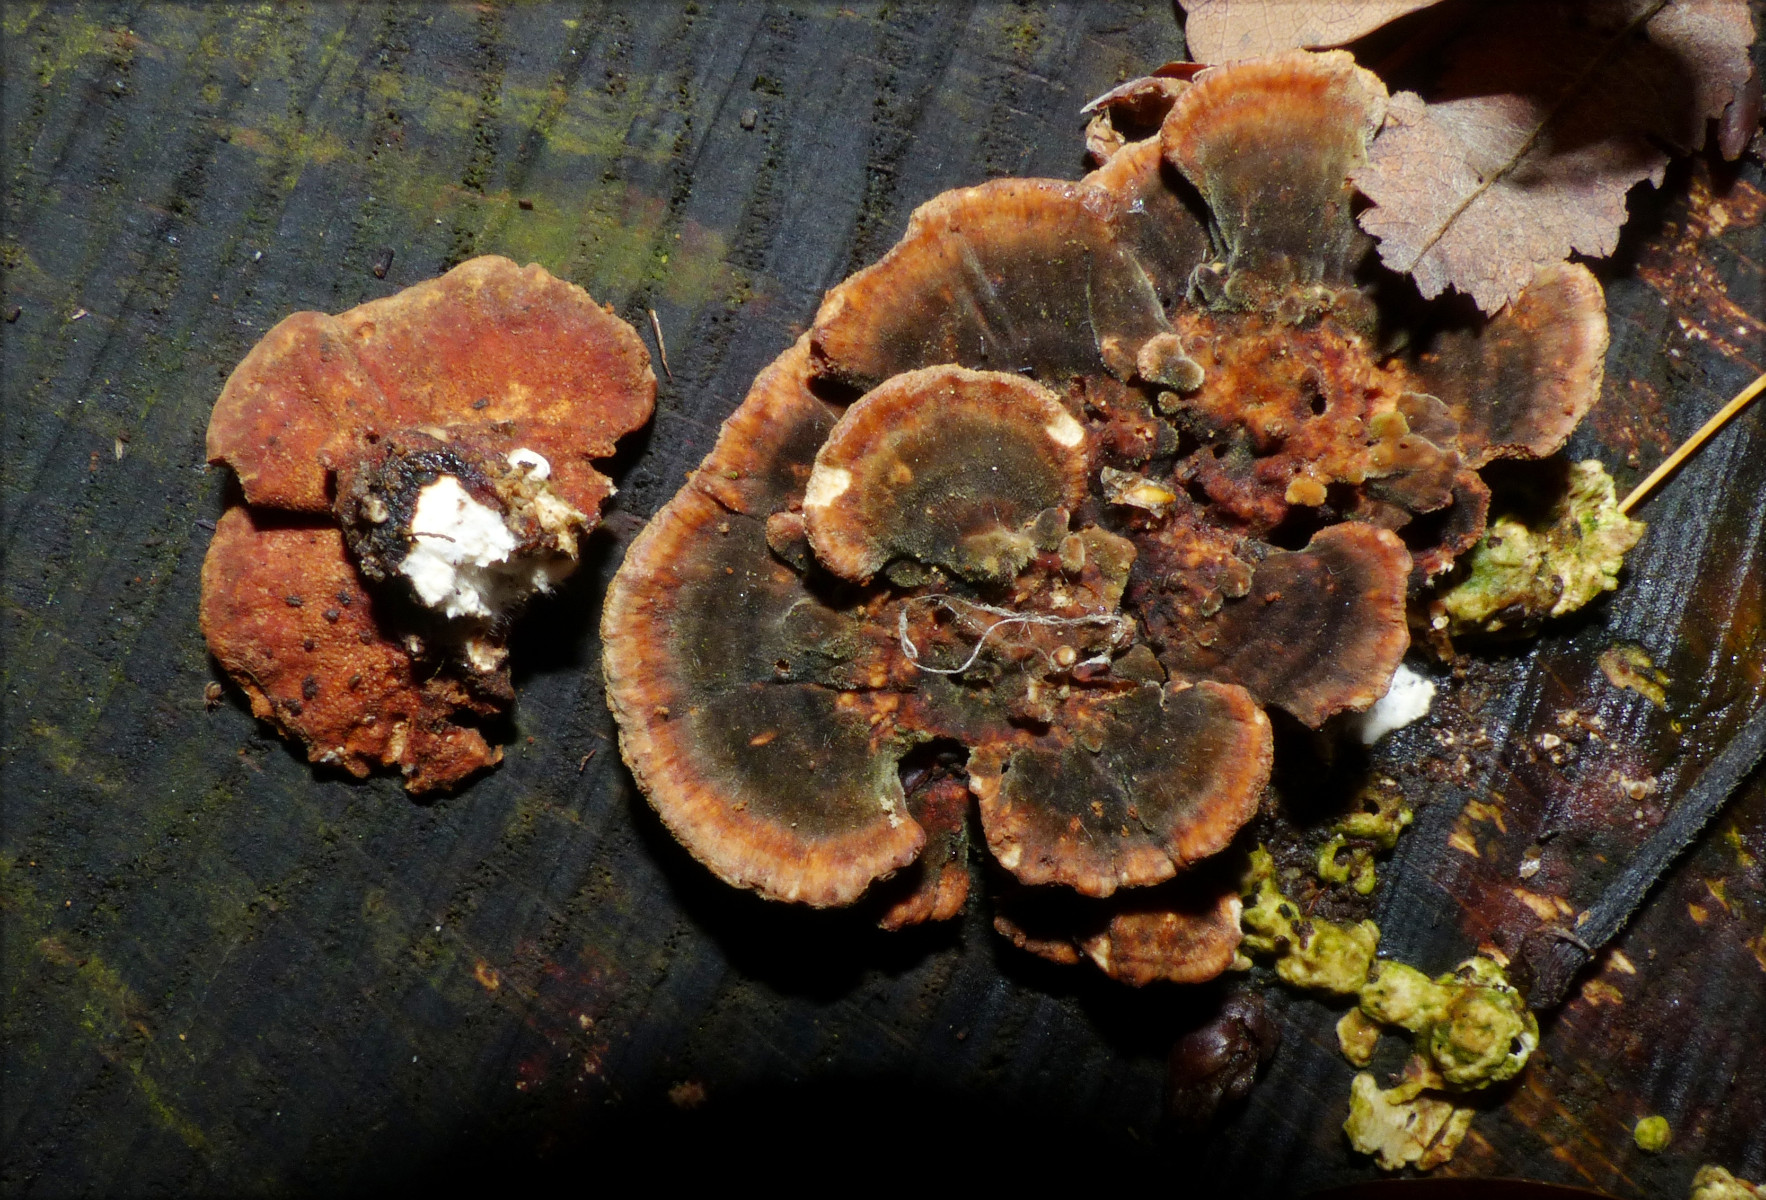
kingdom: Fungi
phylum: Basidiomycota
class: Agaricomycetes
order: Polyporales
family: Polyporaceae
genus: Trametes
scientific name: Trametes versicolor
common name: broget læderporesvamp
